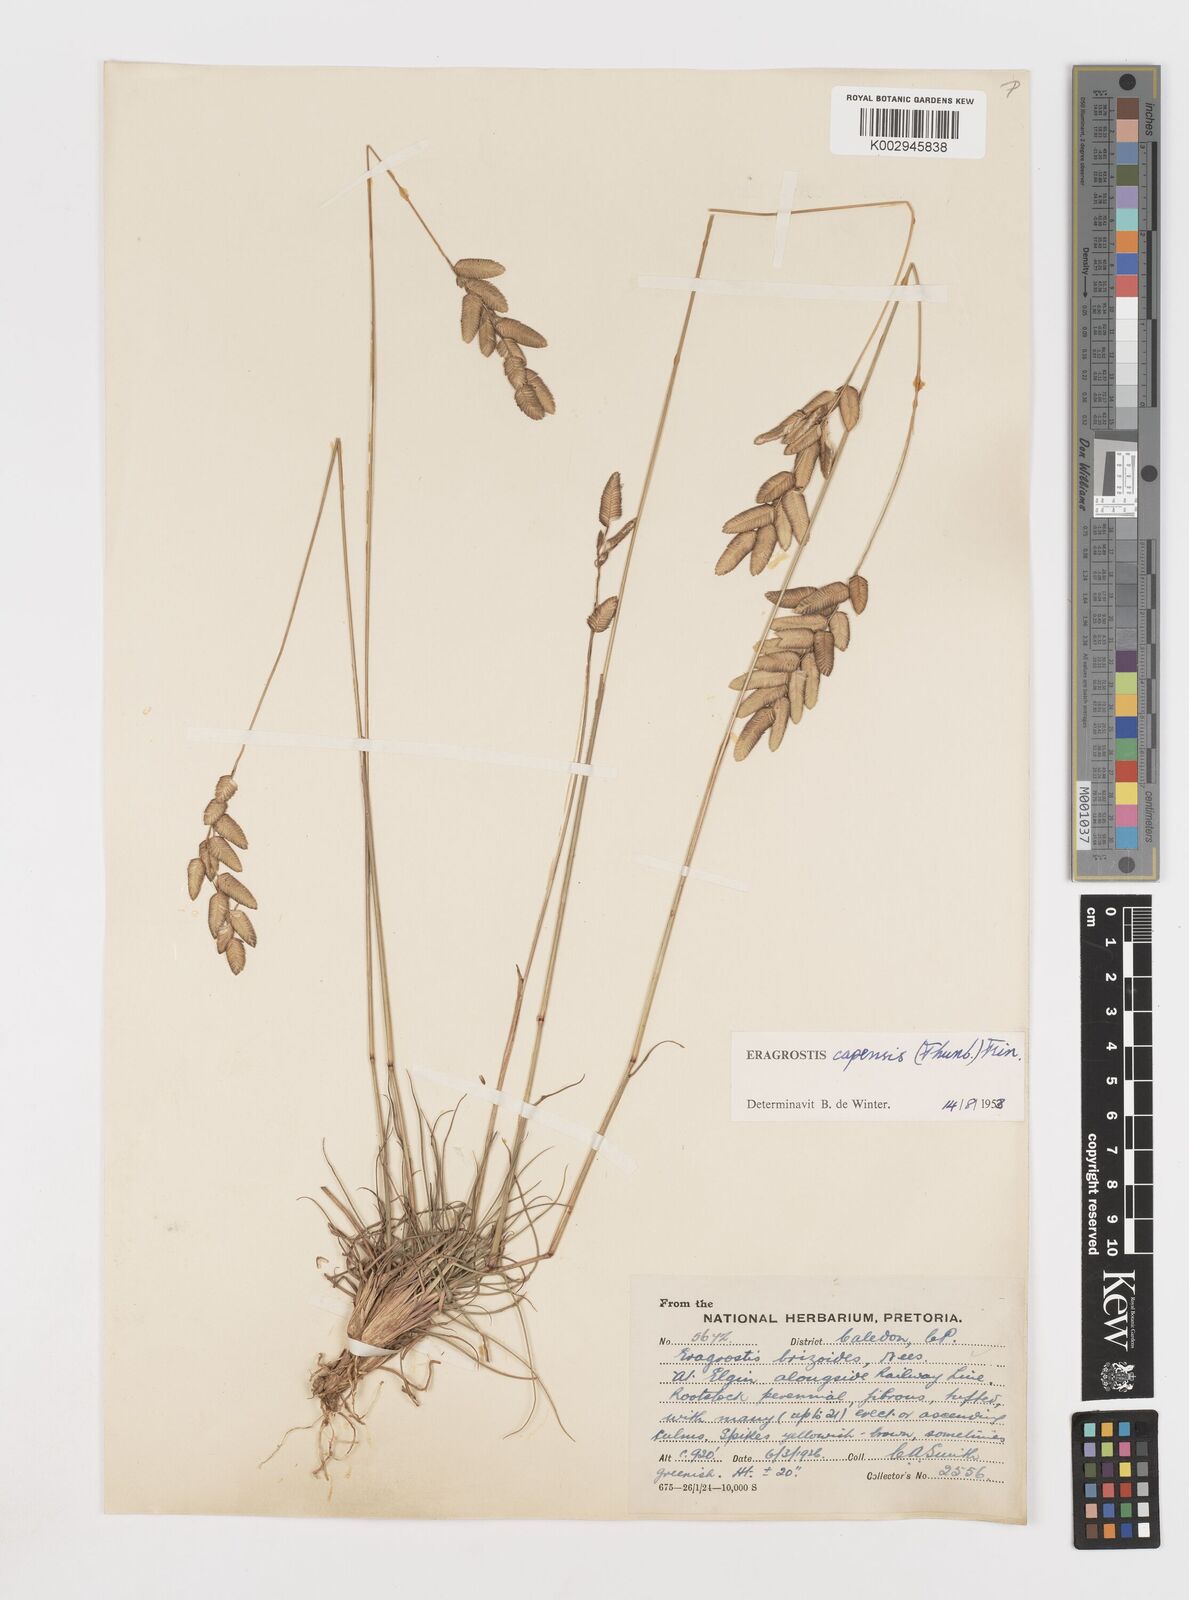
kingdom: Plantae
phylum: Tracheophyta
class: Liliopsida
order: Poales
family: Poaceae
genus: Eragrostis
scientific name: Eragrostis capensis
